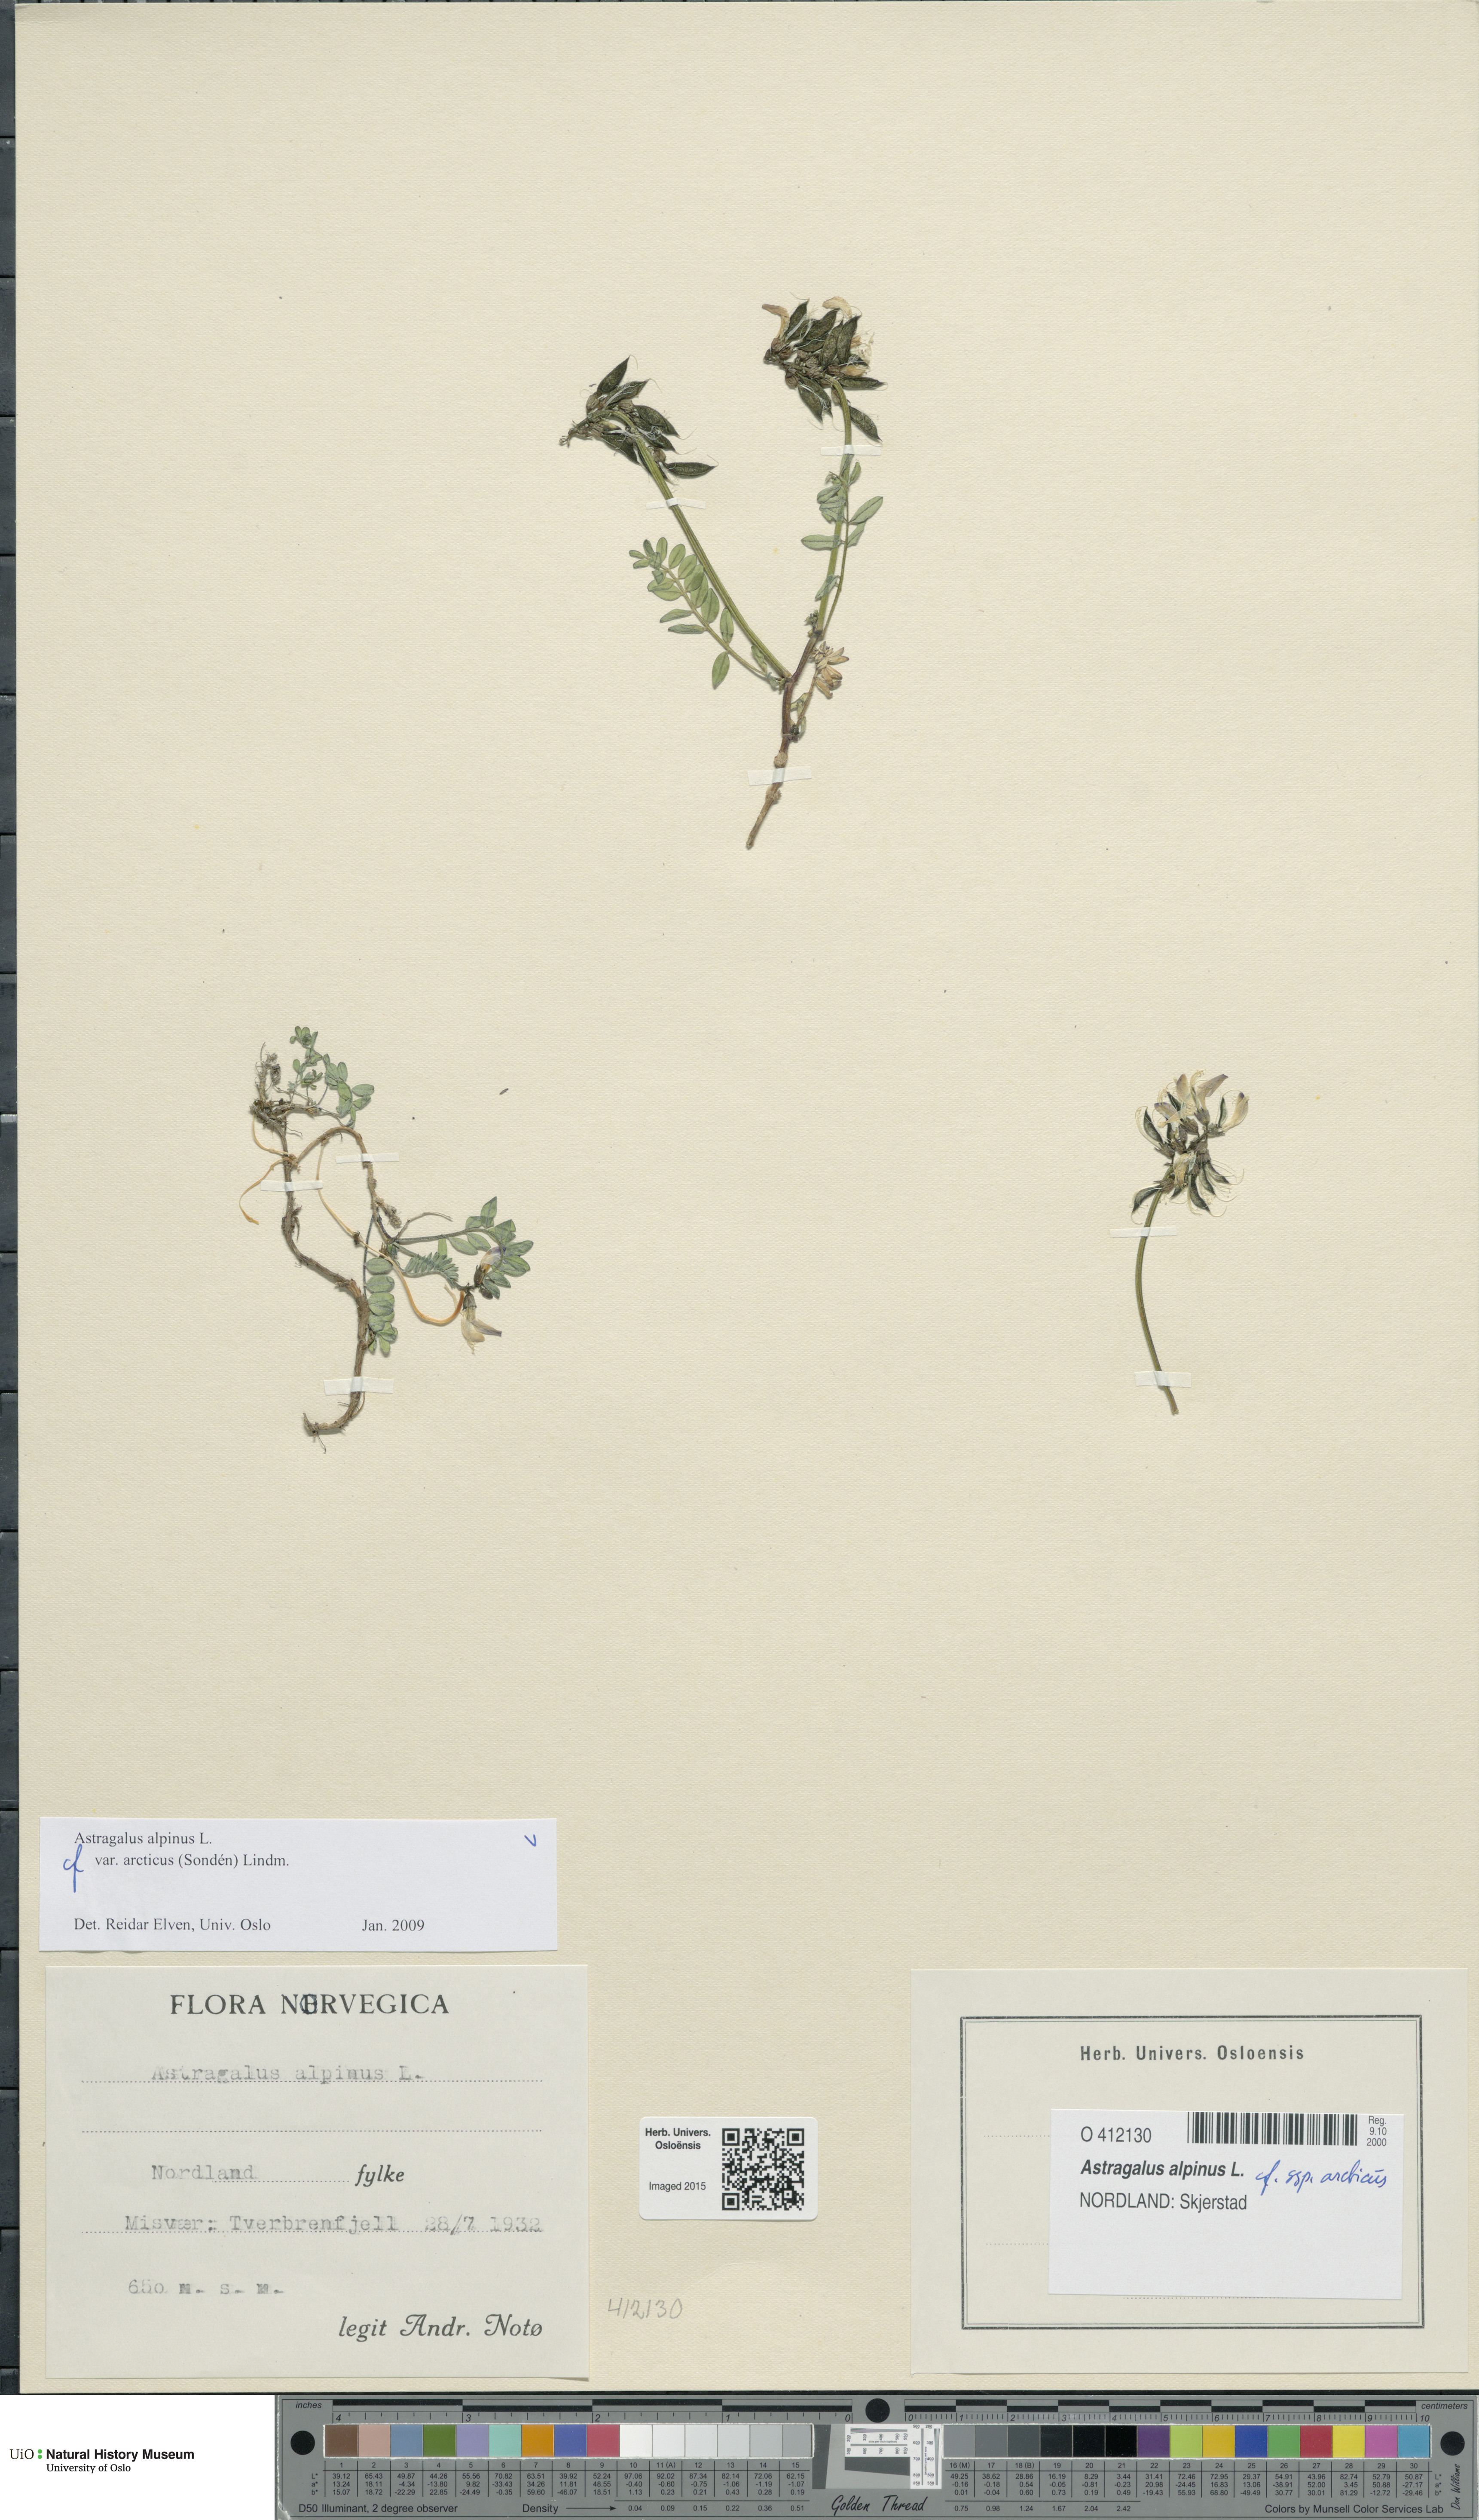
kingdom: Plantae
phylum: Tracheophyta
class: Magnoliopsida
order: Fabales
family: Fabaceae
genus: Astragalus
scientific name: Astragalus norvegicus
